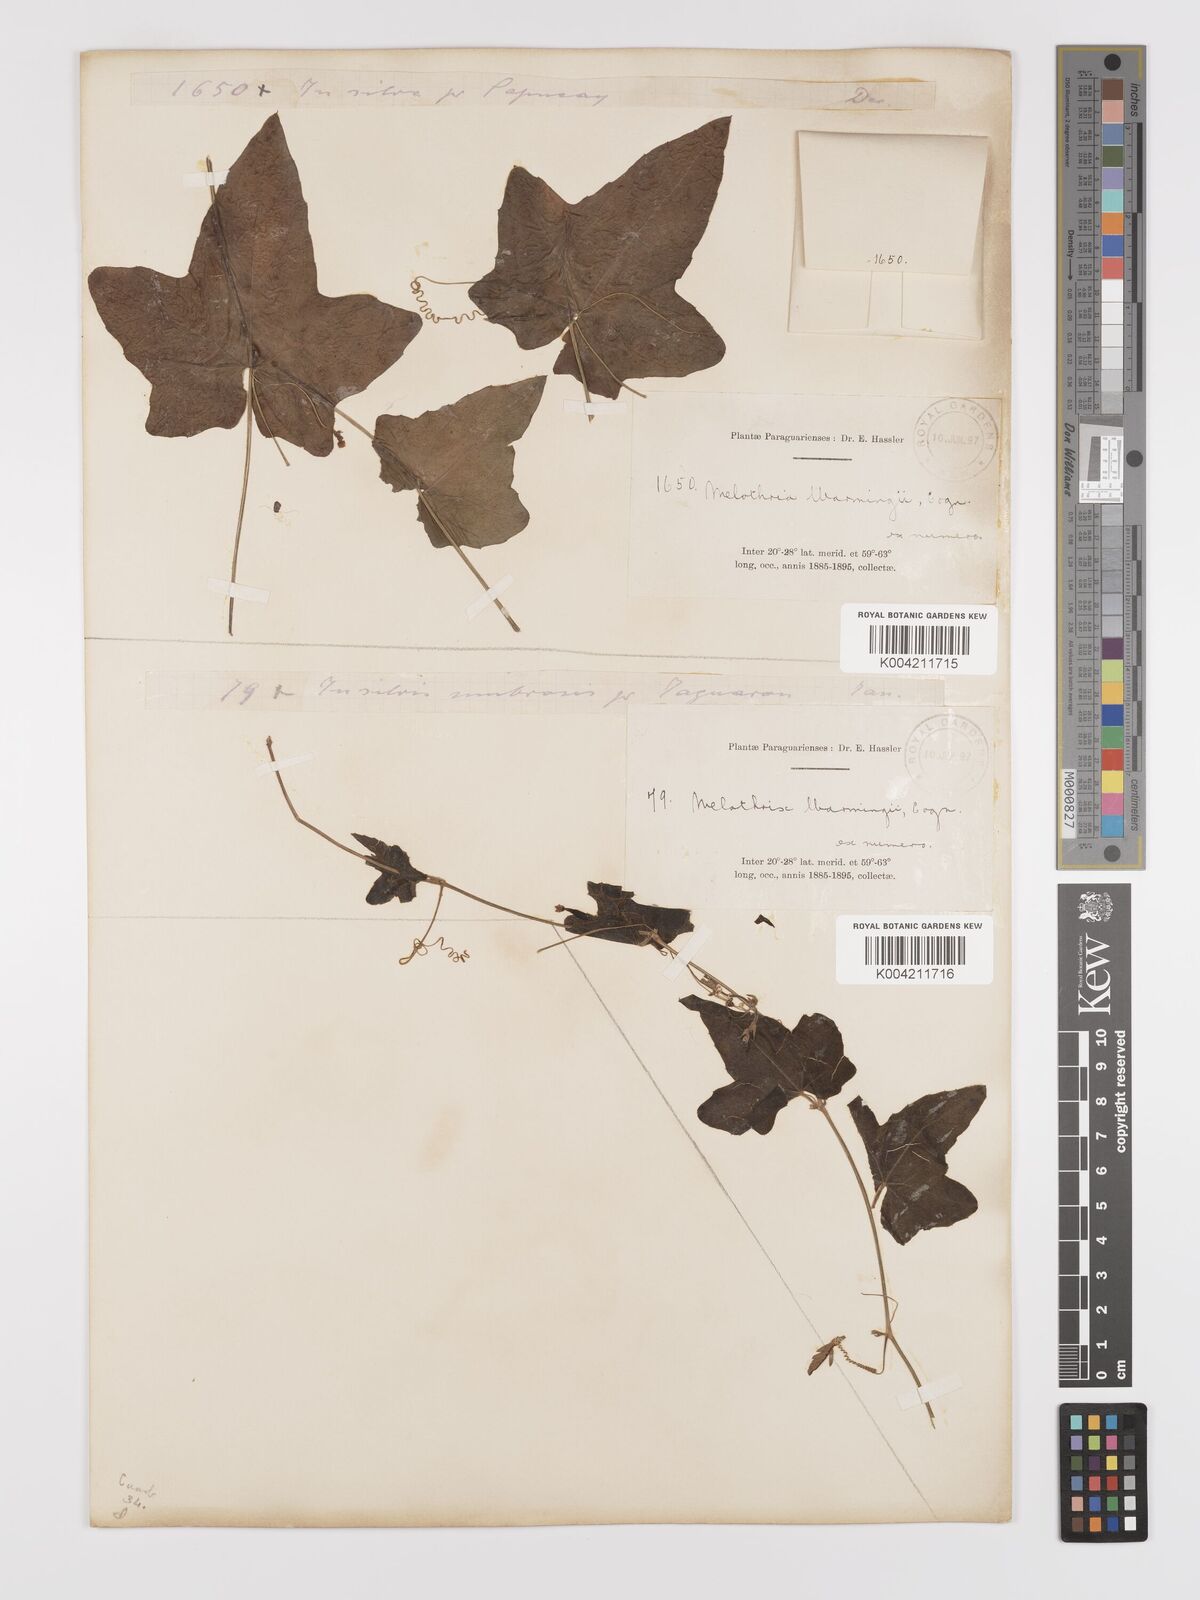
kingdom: Plantae
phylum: Tracheophyta
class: Magnoliopsida
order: Cucurbitales
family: Cucurbitaceae
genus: Melothria
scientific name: Melothria warmingii
